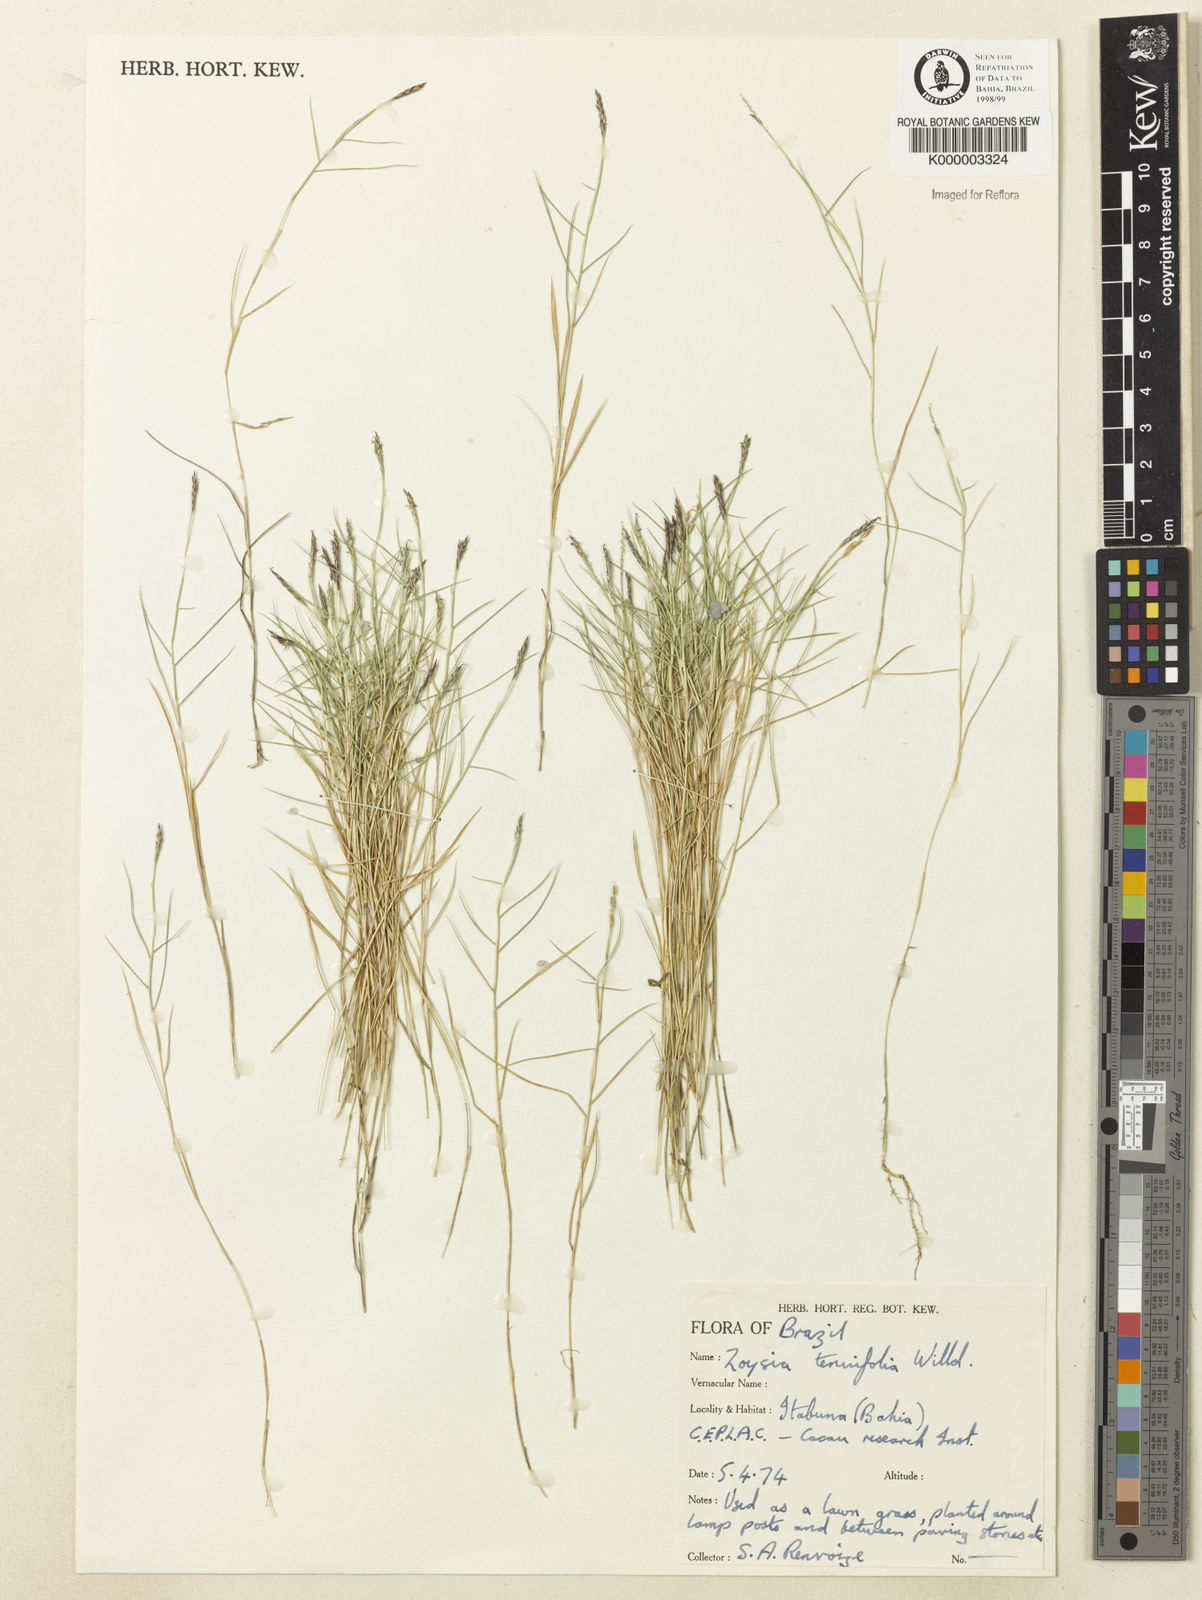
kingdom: Plantae
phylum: Tracheophyta
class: Liliopsida
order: Poales
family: Poaceae
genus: Zoysia
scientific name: Zoysia matrella
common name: Manila grass
